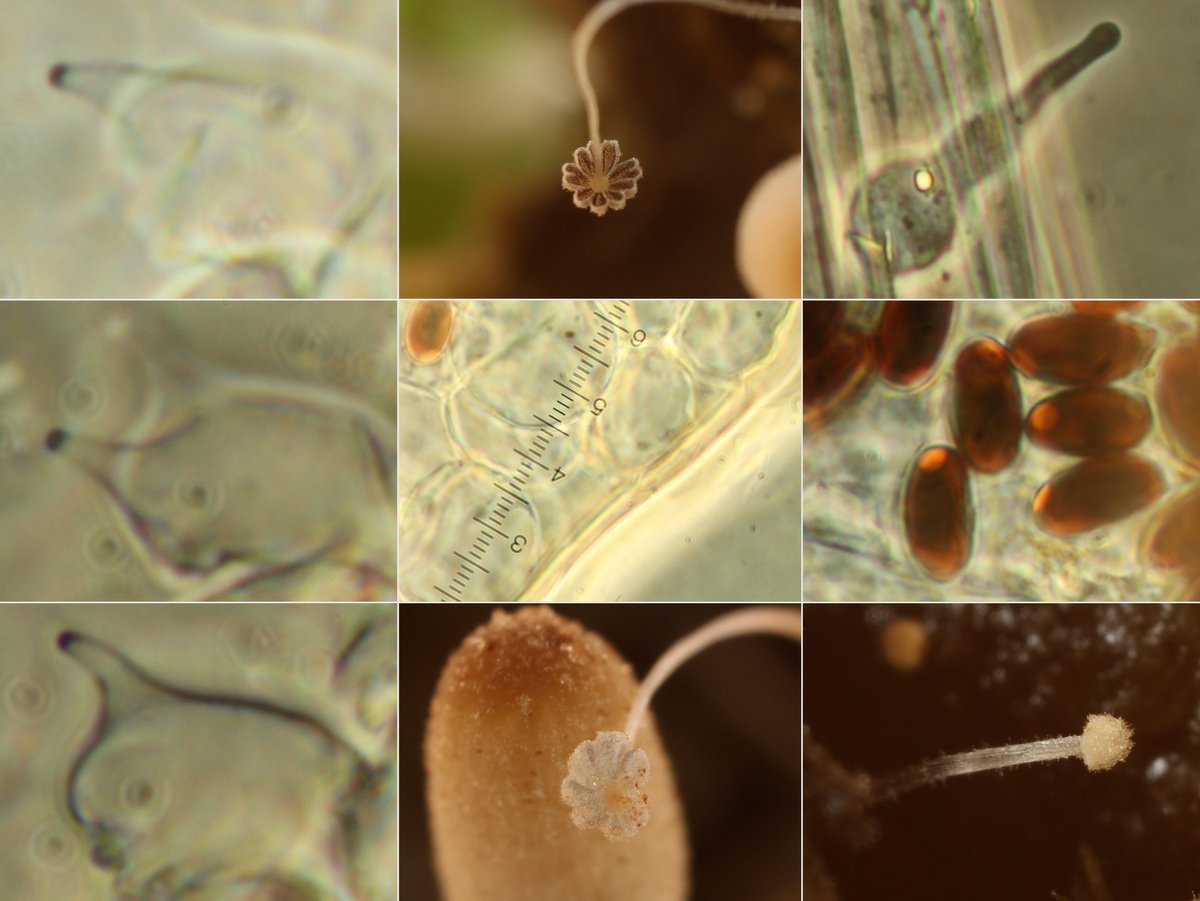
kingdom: Fungi
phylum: Basidiomycota
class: Agaricomycetes
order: Agaricales
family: Psathyrellaceae
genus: Coprinellus
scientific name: Coprinellus heptemerus
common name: hjorte-blækhat
